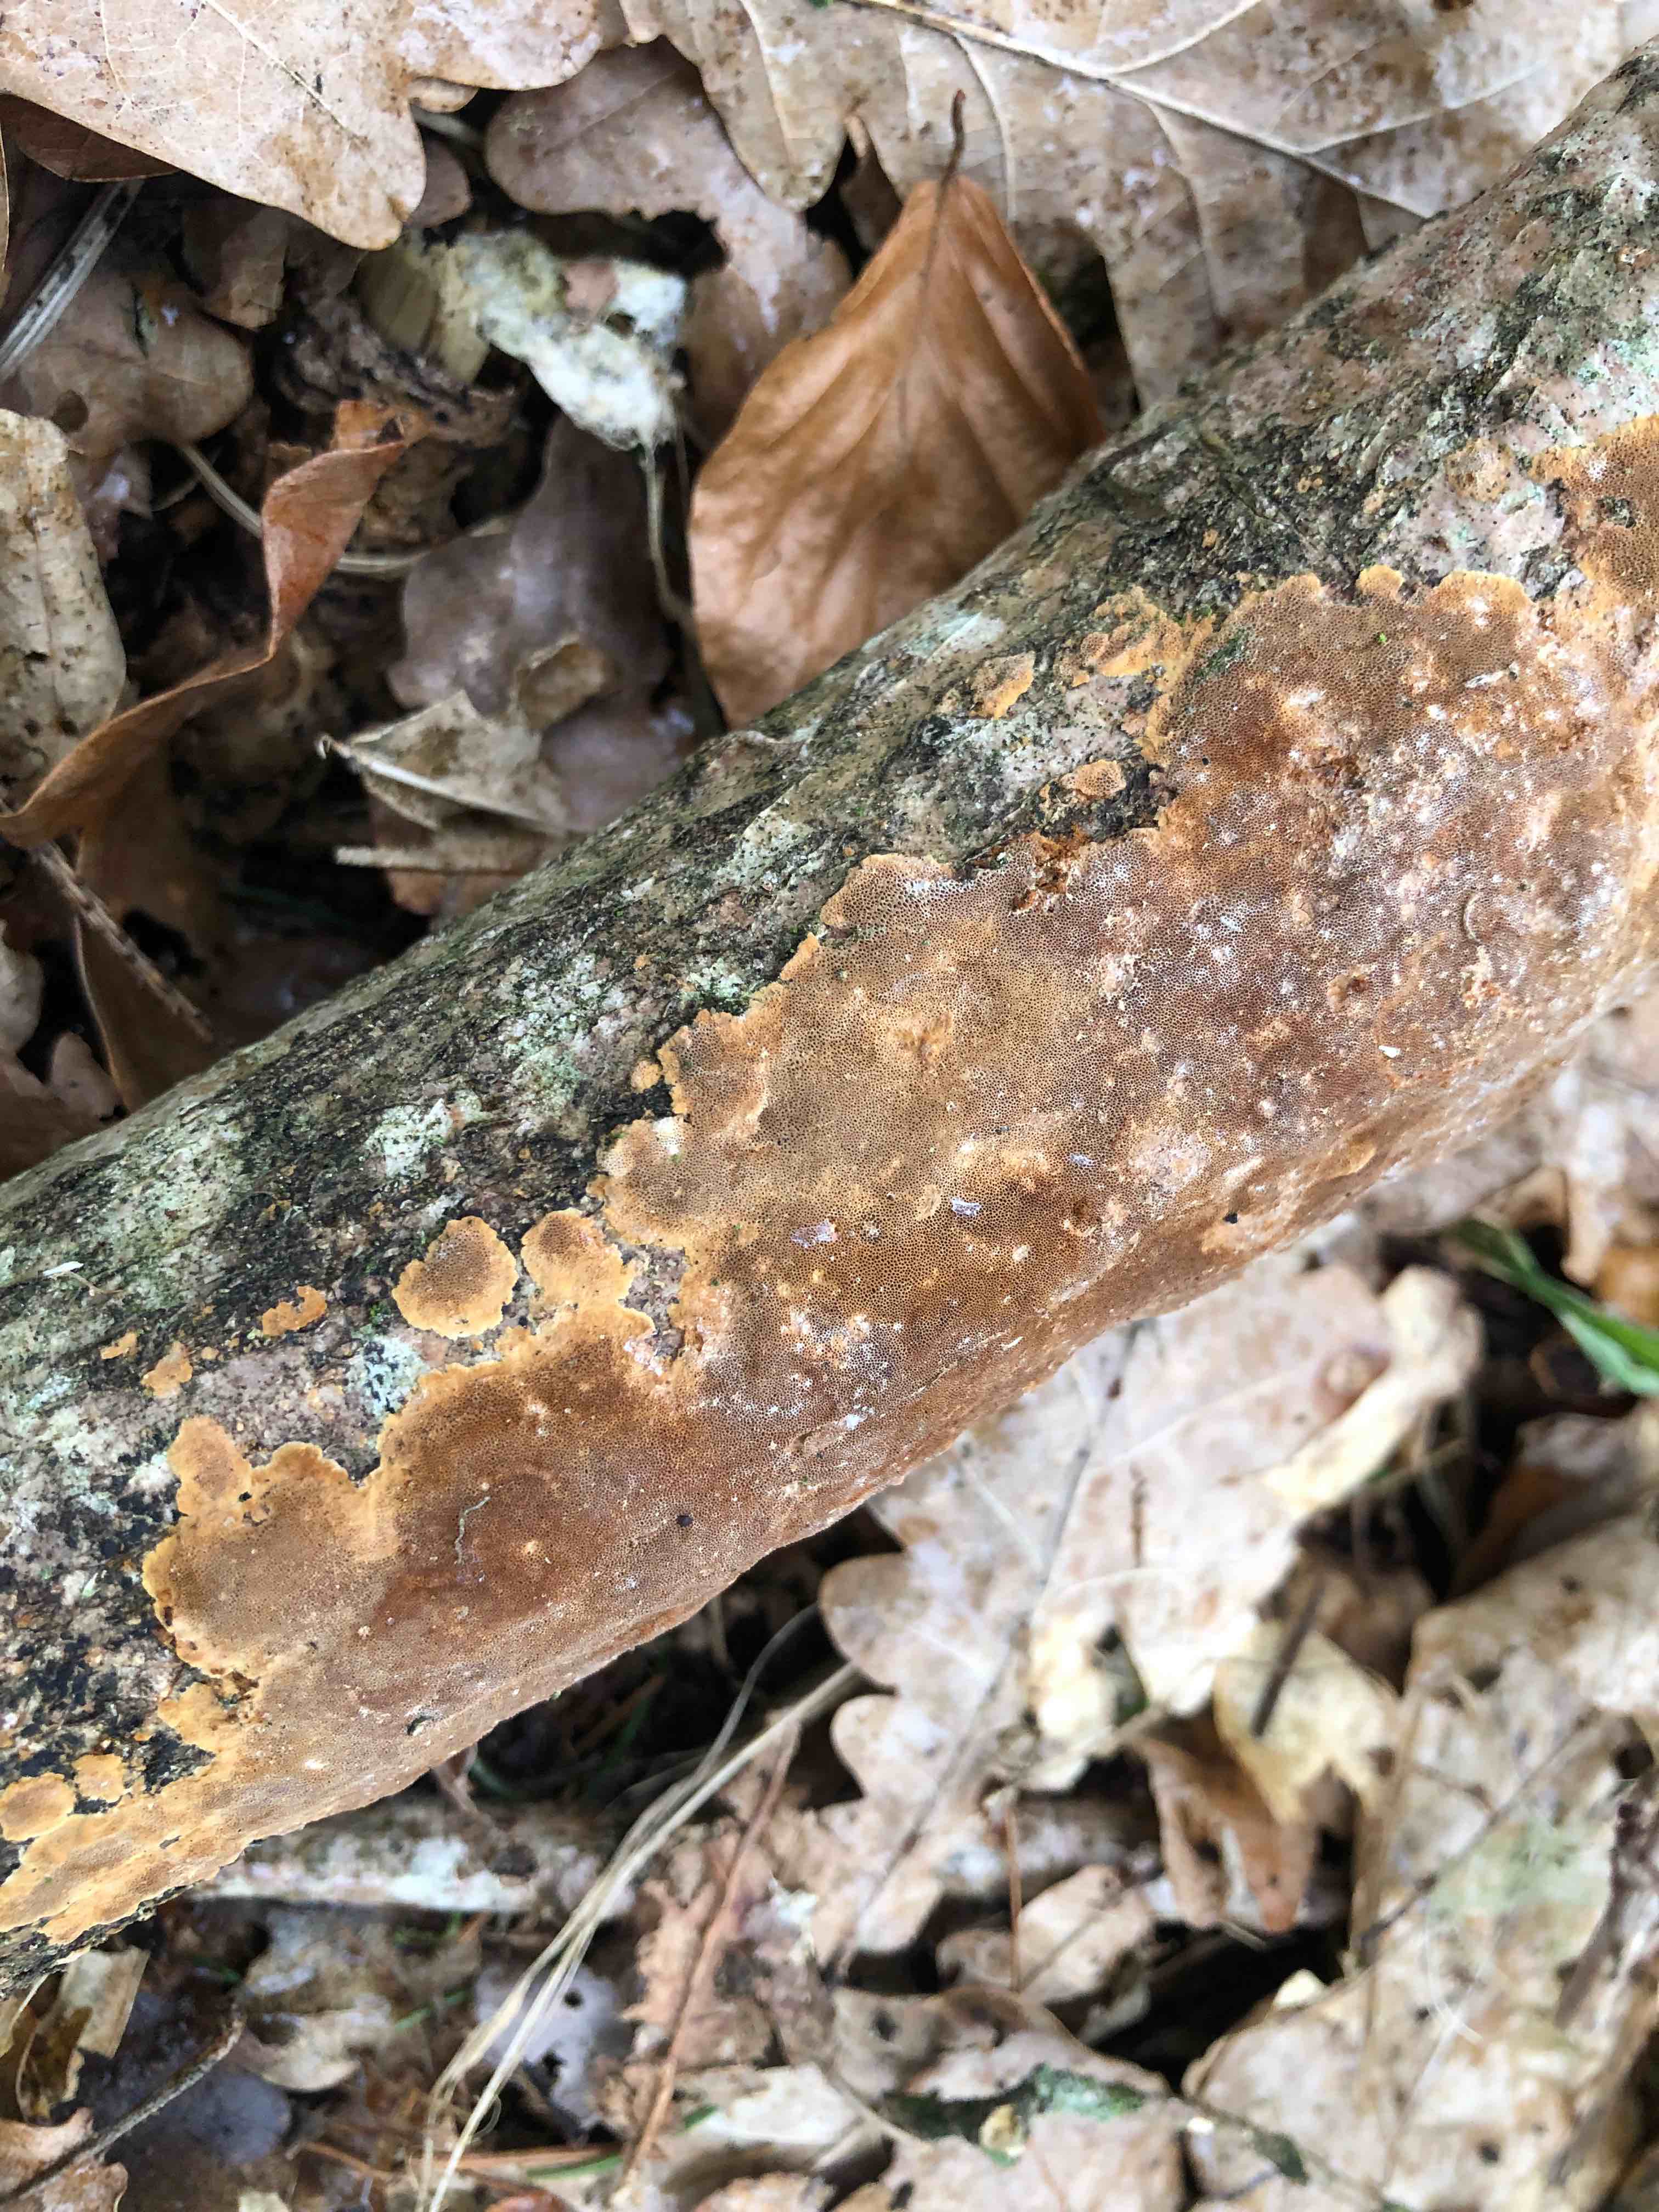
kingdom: Fungi
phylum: Basidiomycota
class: Agaricomycetes
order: Hymenochaetales
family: Hymenochaetaceae
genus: Fuscoporia
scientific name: Fuscoporia ferrea
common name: skorpe-ildporesvamp
